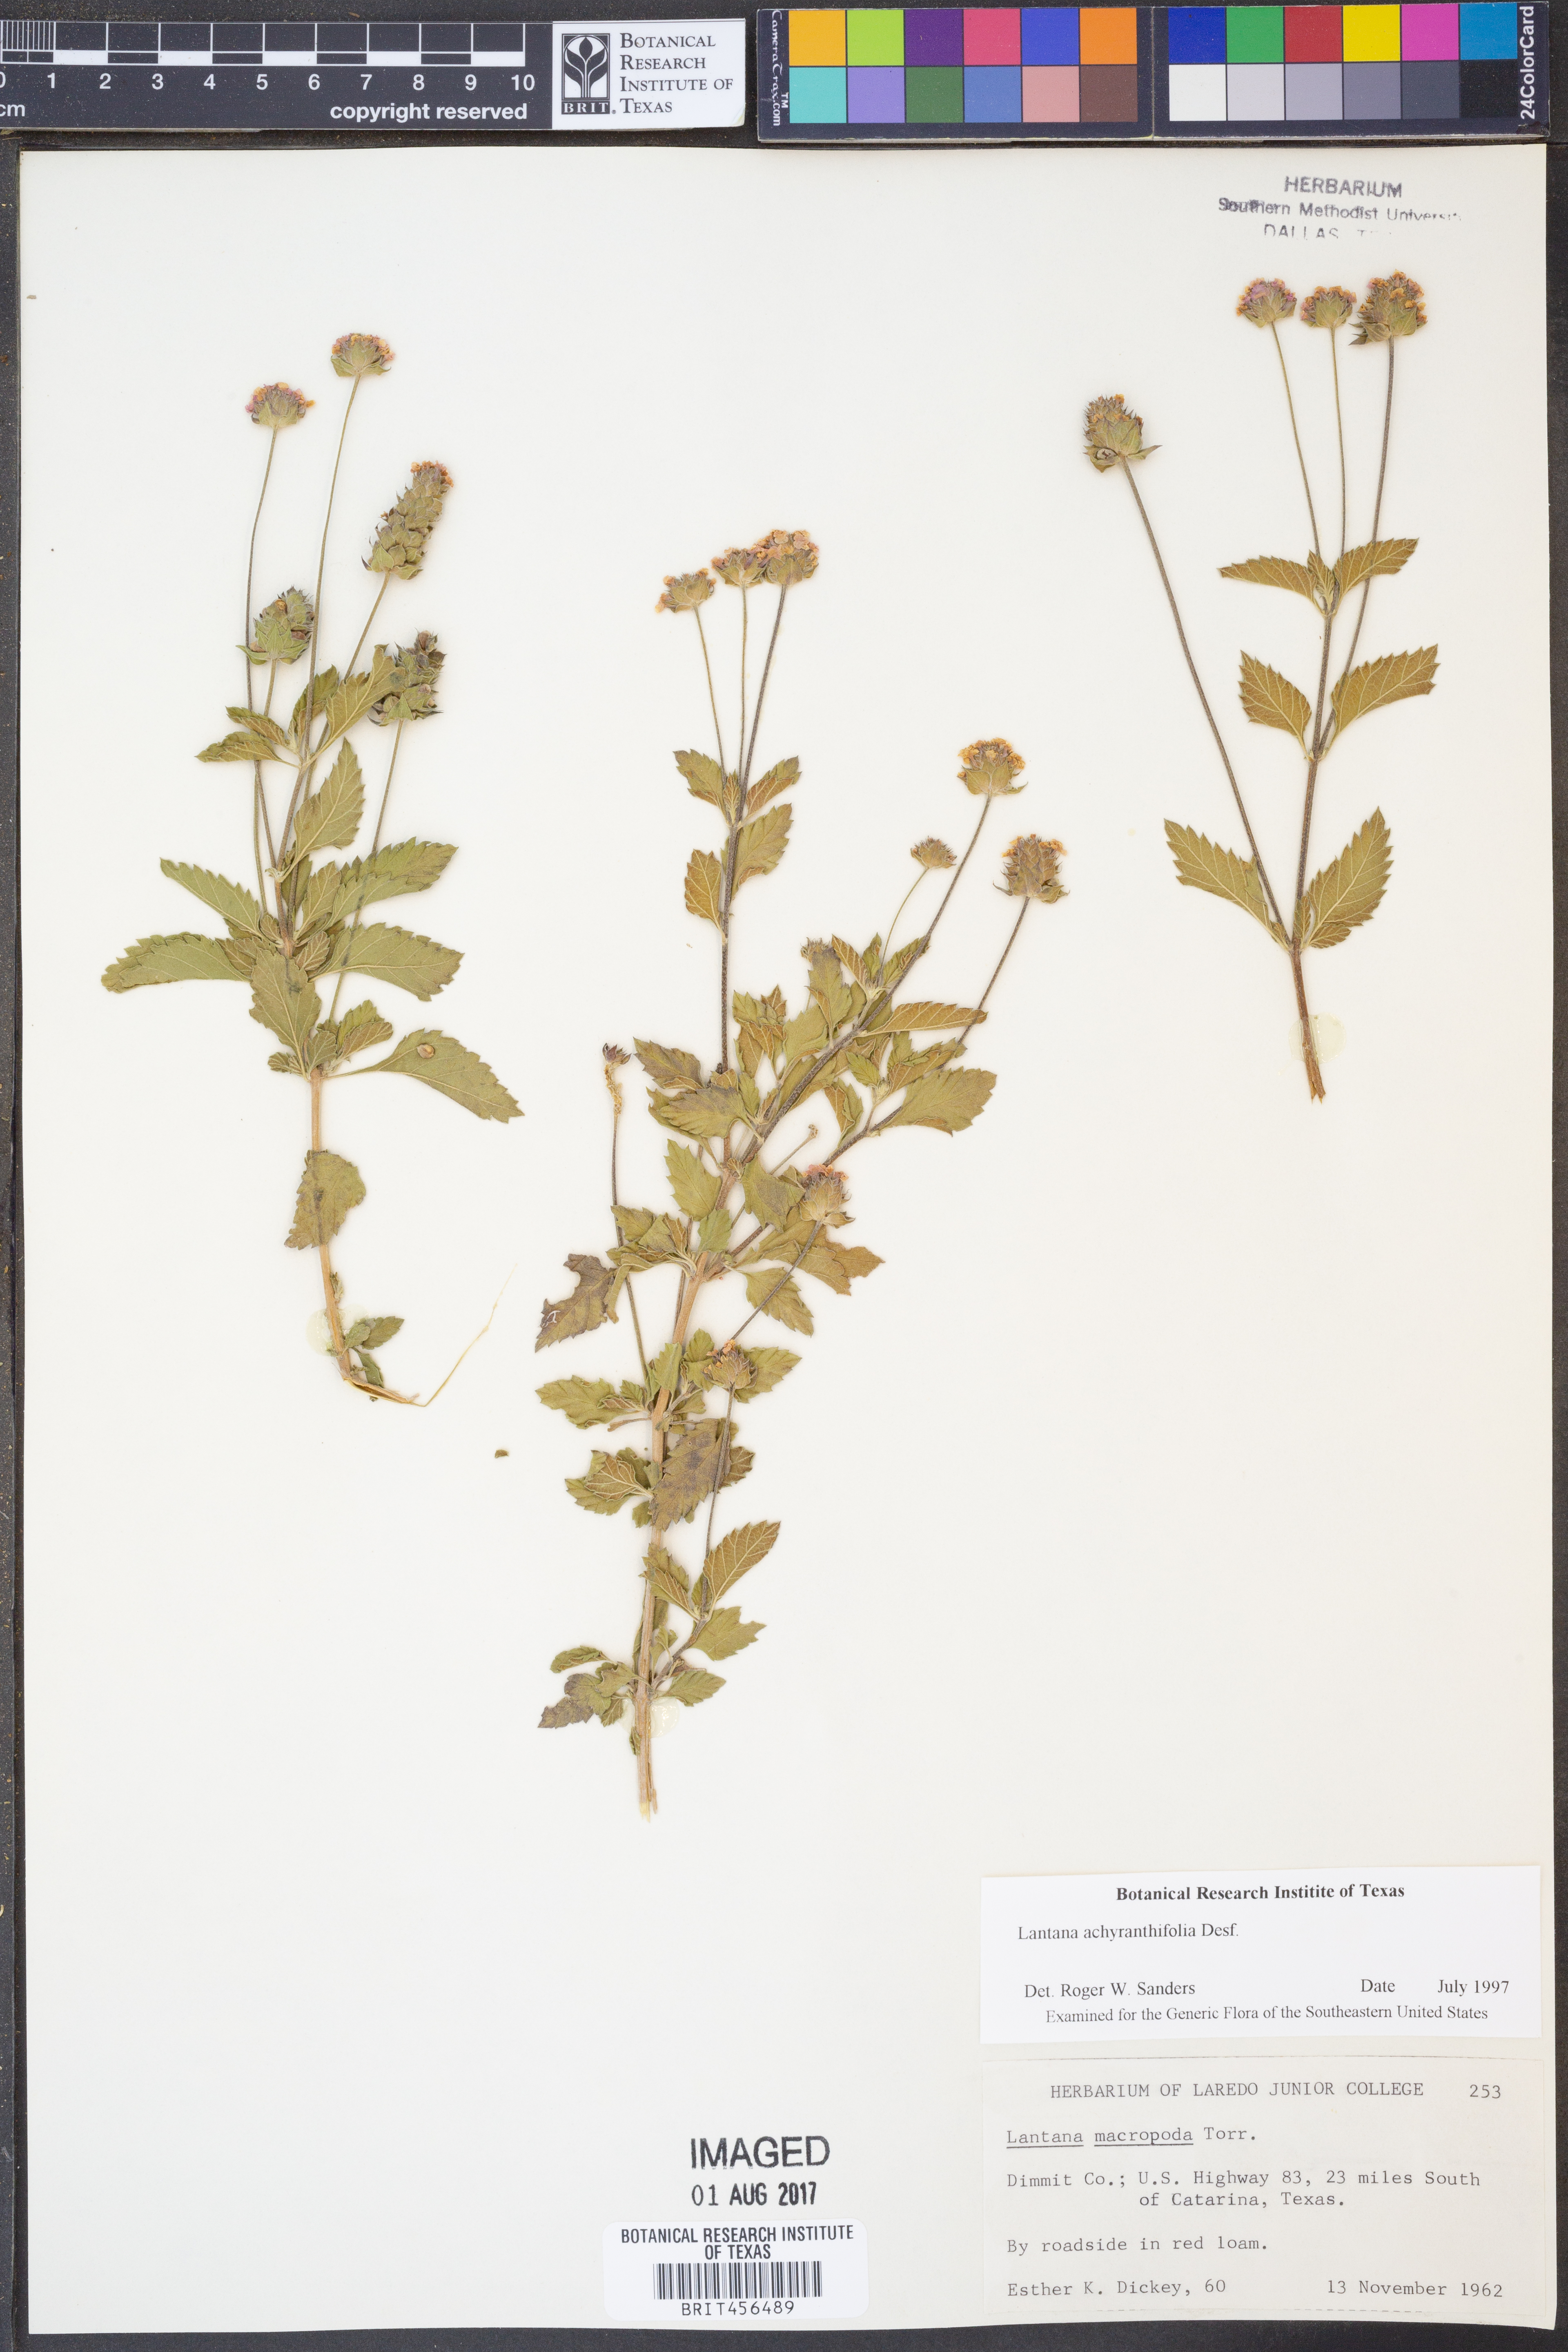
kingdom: Plantae
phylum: Tracheophyta
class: Magnoliopsida
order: Lamiales
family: Verbenaceae
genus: Lantana
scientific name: Lantana achyranthifolia
